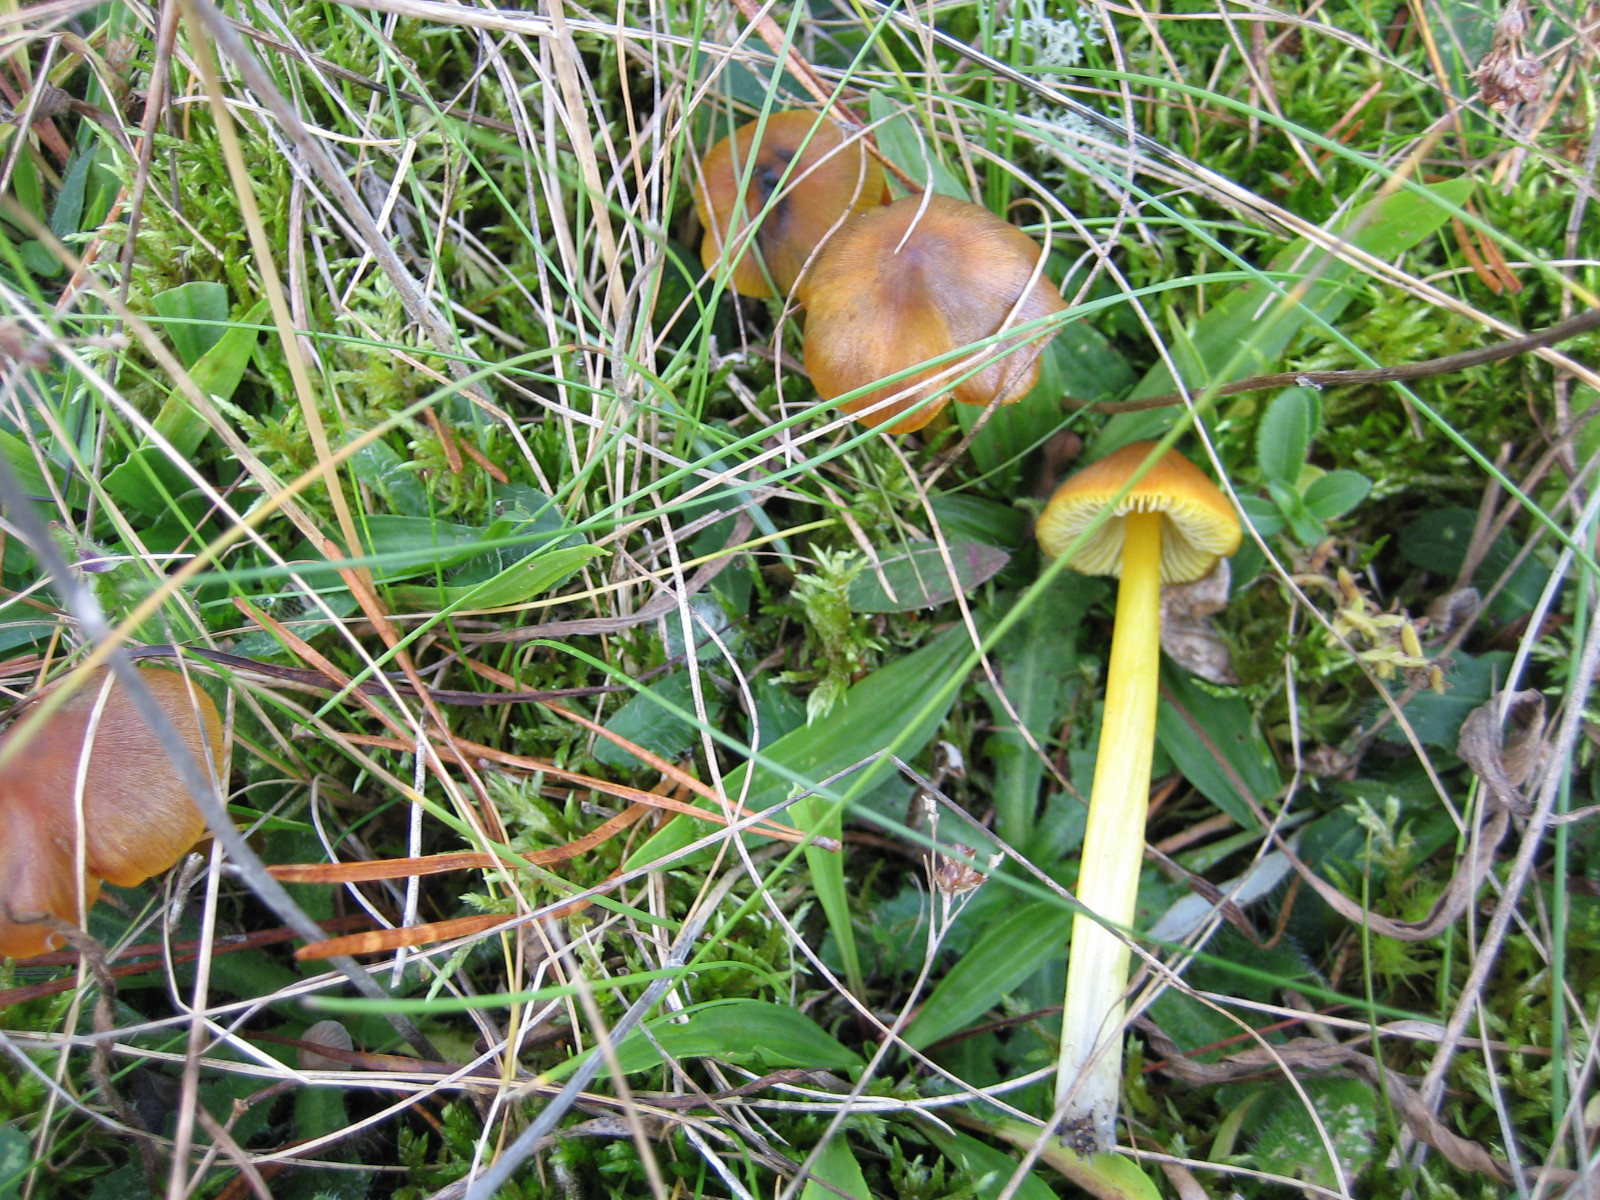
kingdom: Fungi
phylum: Basidiomycota
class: Agaricomycetes
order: Agaricales
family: Hygrophoraceae
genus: Hygrocybe
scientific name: Hygrocybe conica
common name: kegle-vokshat
